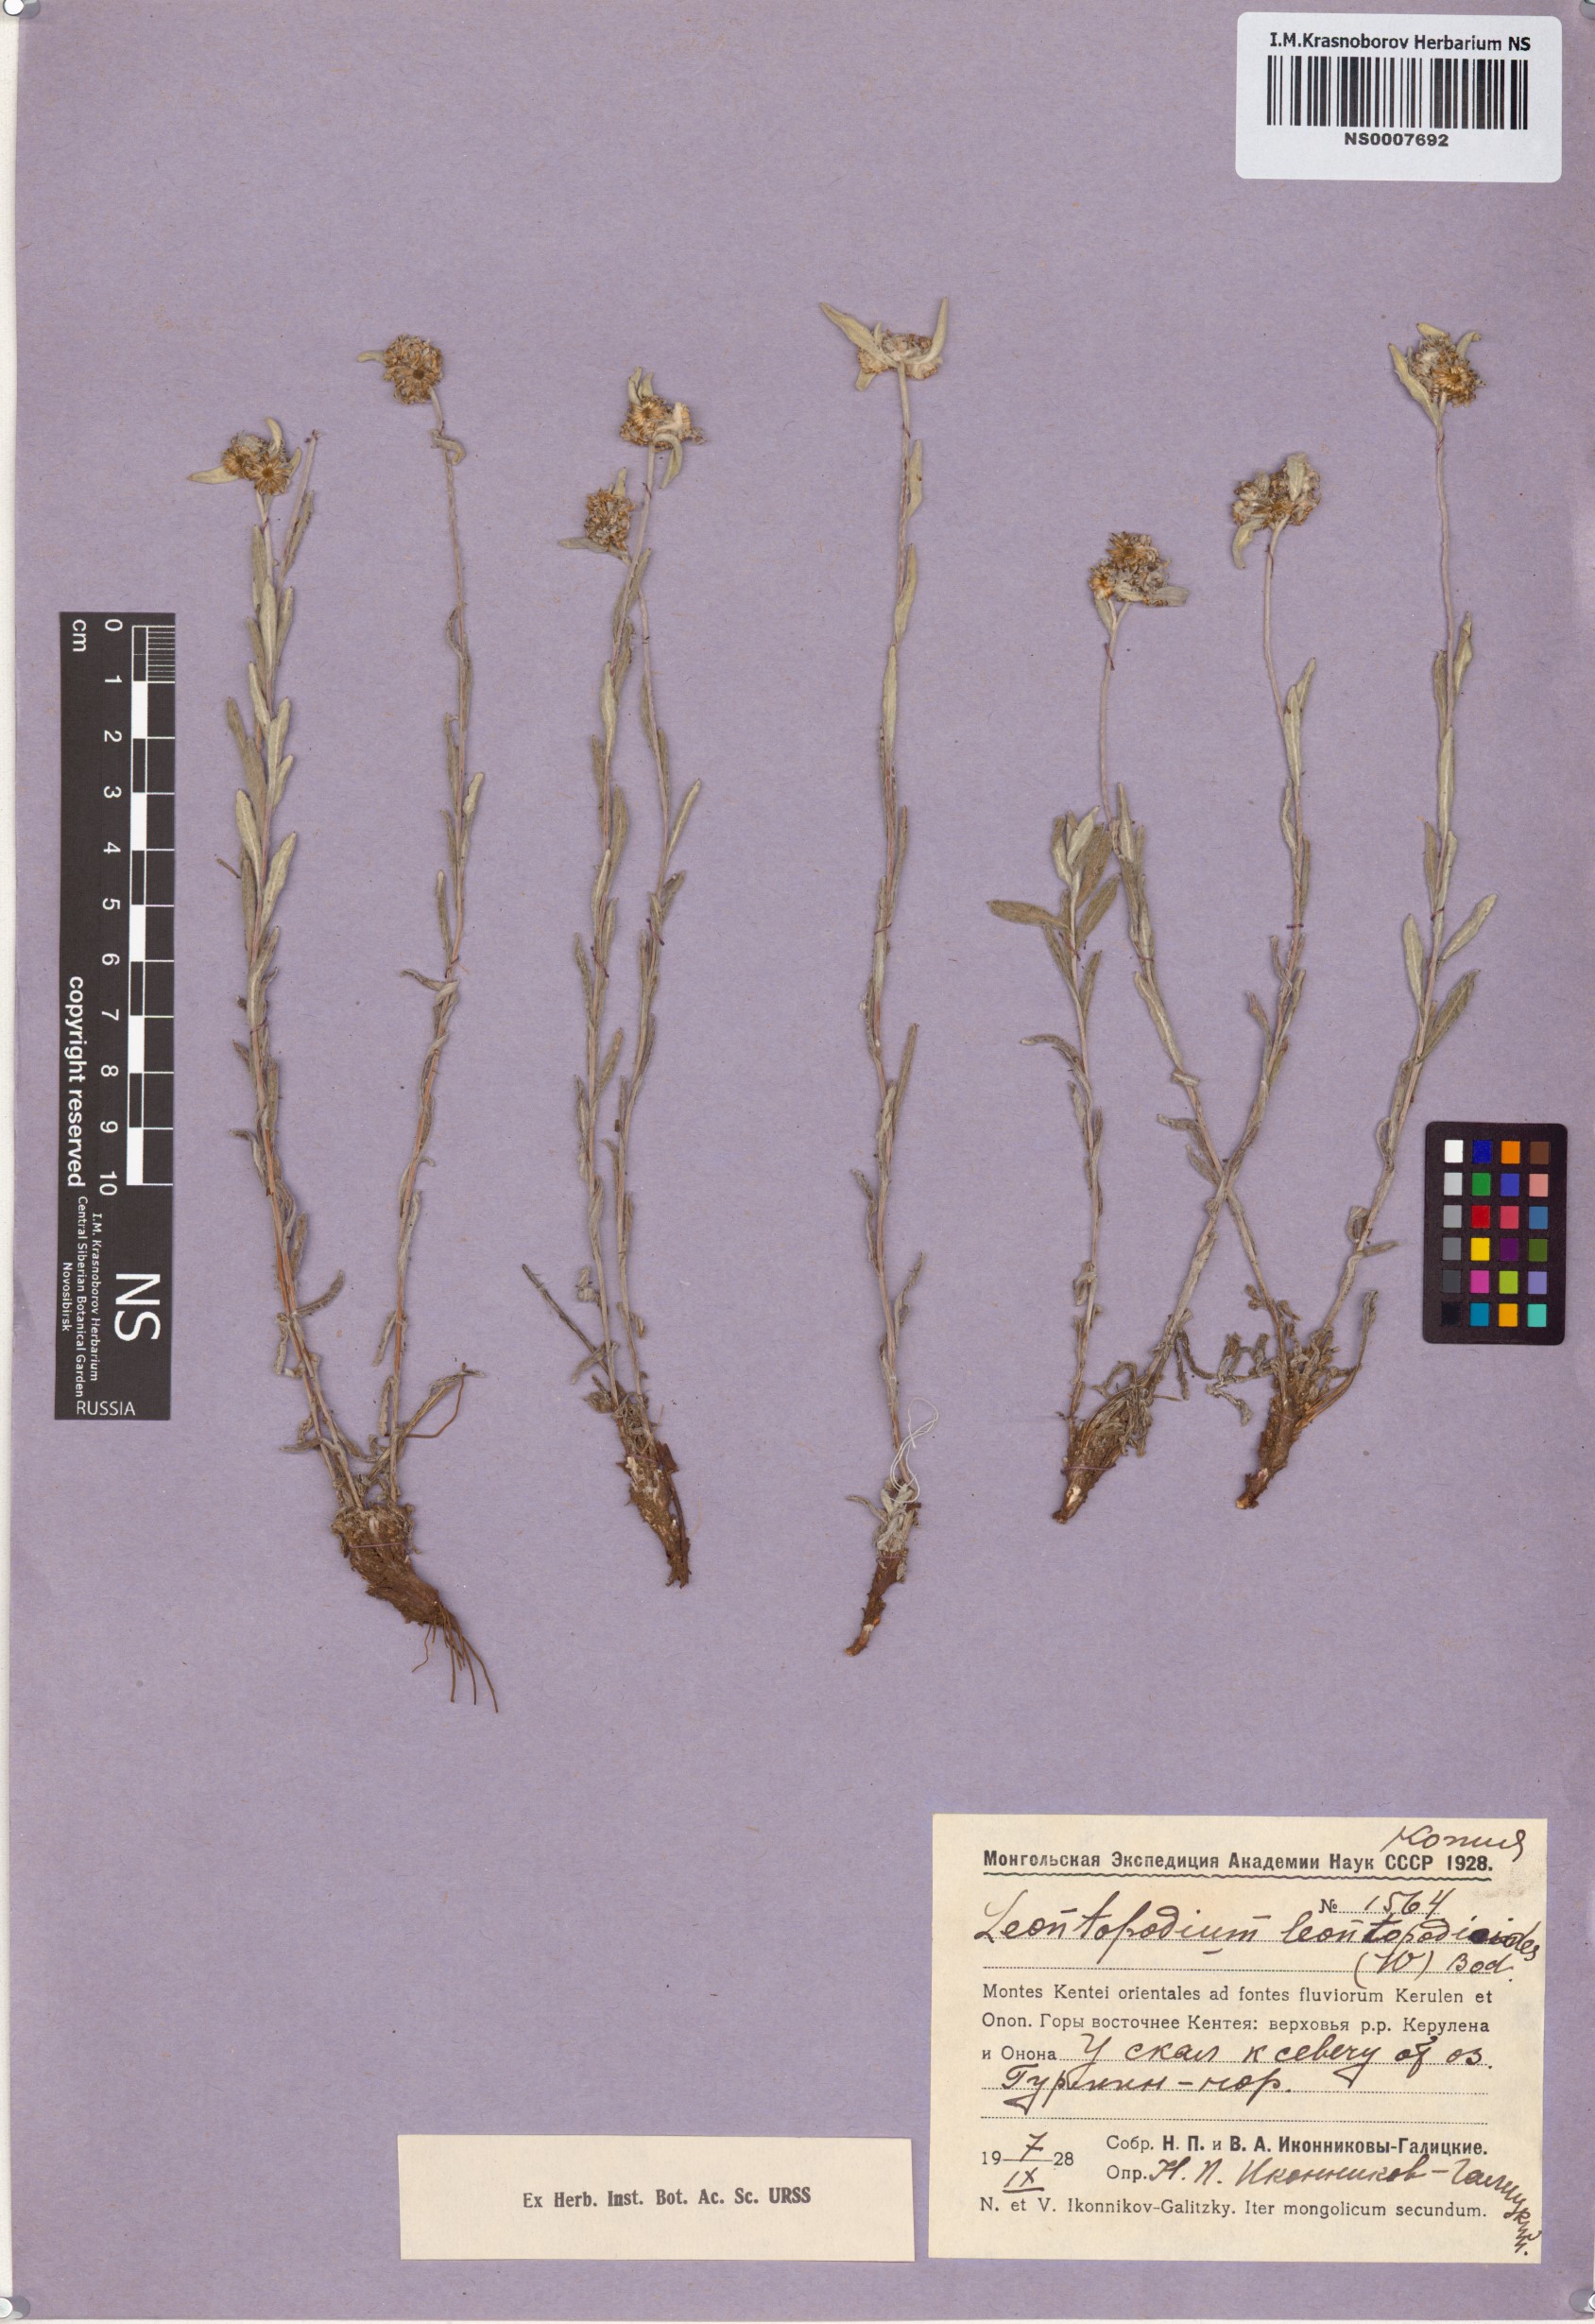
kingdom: Plantae
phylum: Tracheophyta
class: Magnoliopsida
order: Asterales
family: Asteraceae
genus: Leontopodium
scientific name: Leontopodium leontopodioides
